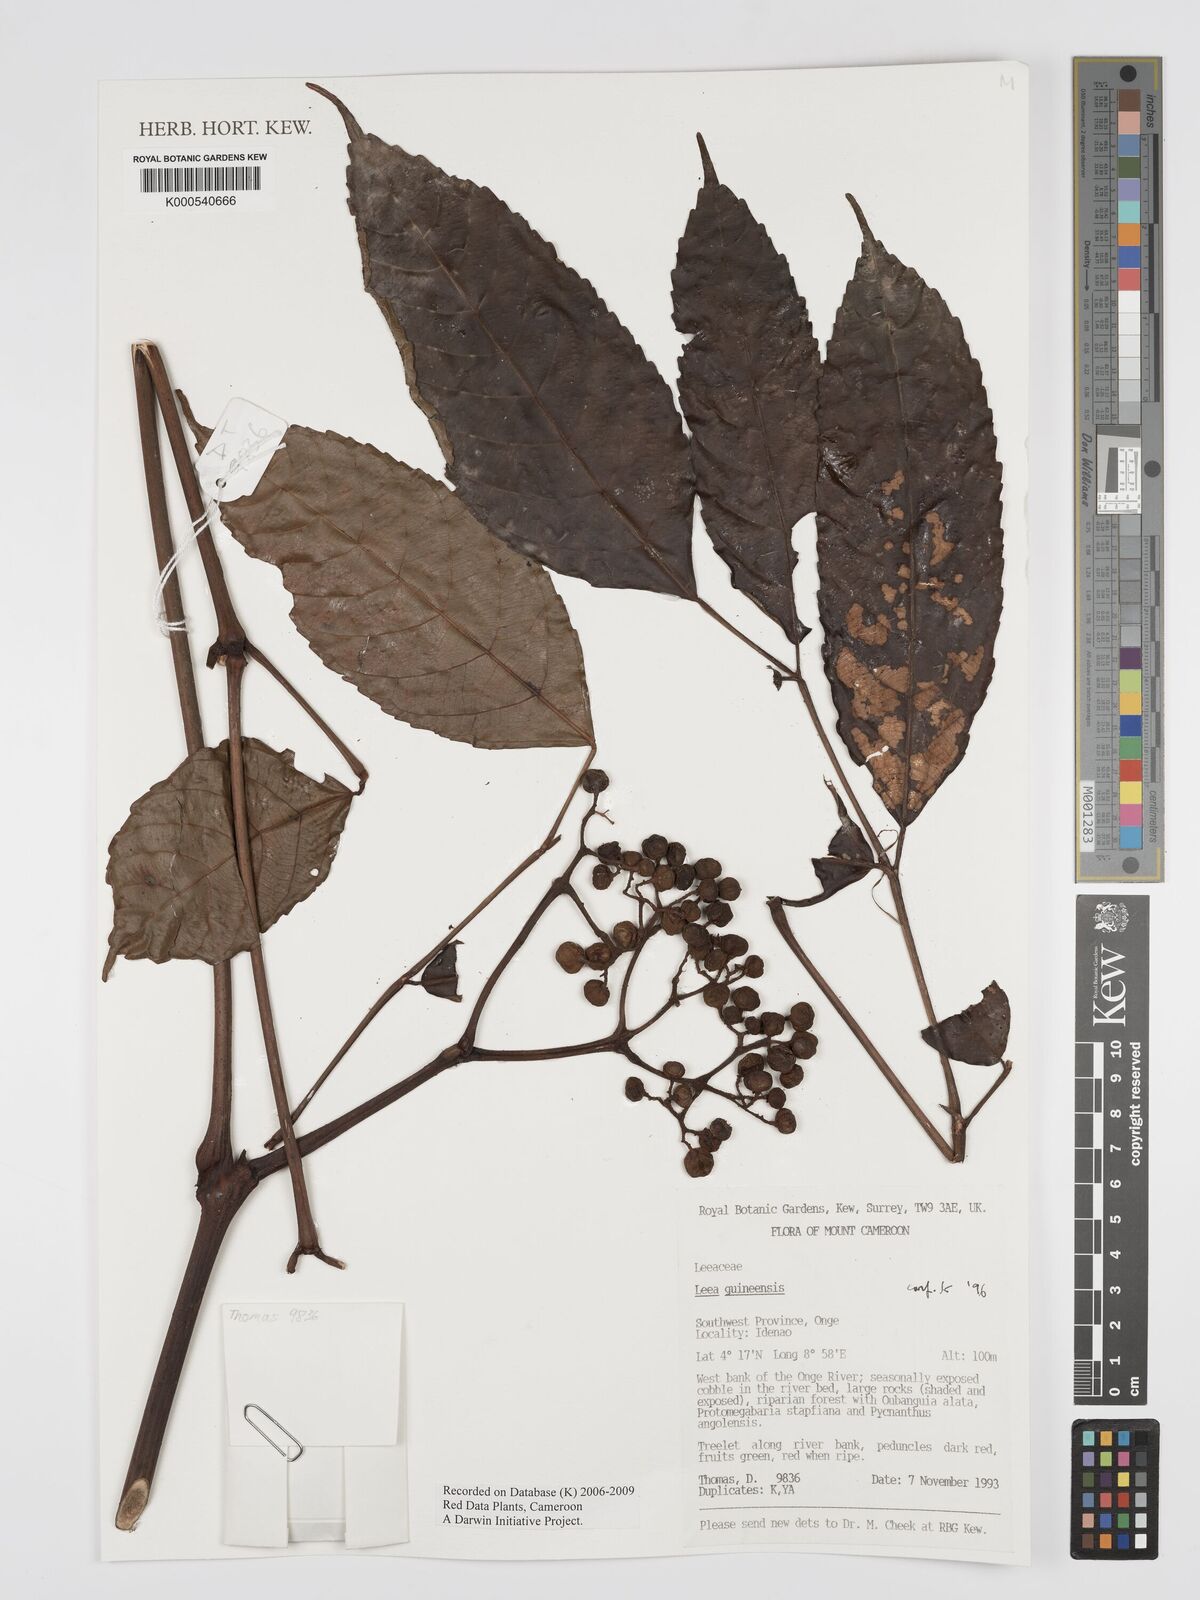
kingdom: Plantae
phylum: Tracheophyta
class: Magnoliopsida
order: Vitales
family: Vitaceae
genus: Leea
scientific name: Leea guineensis
